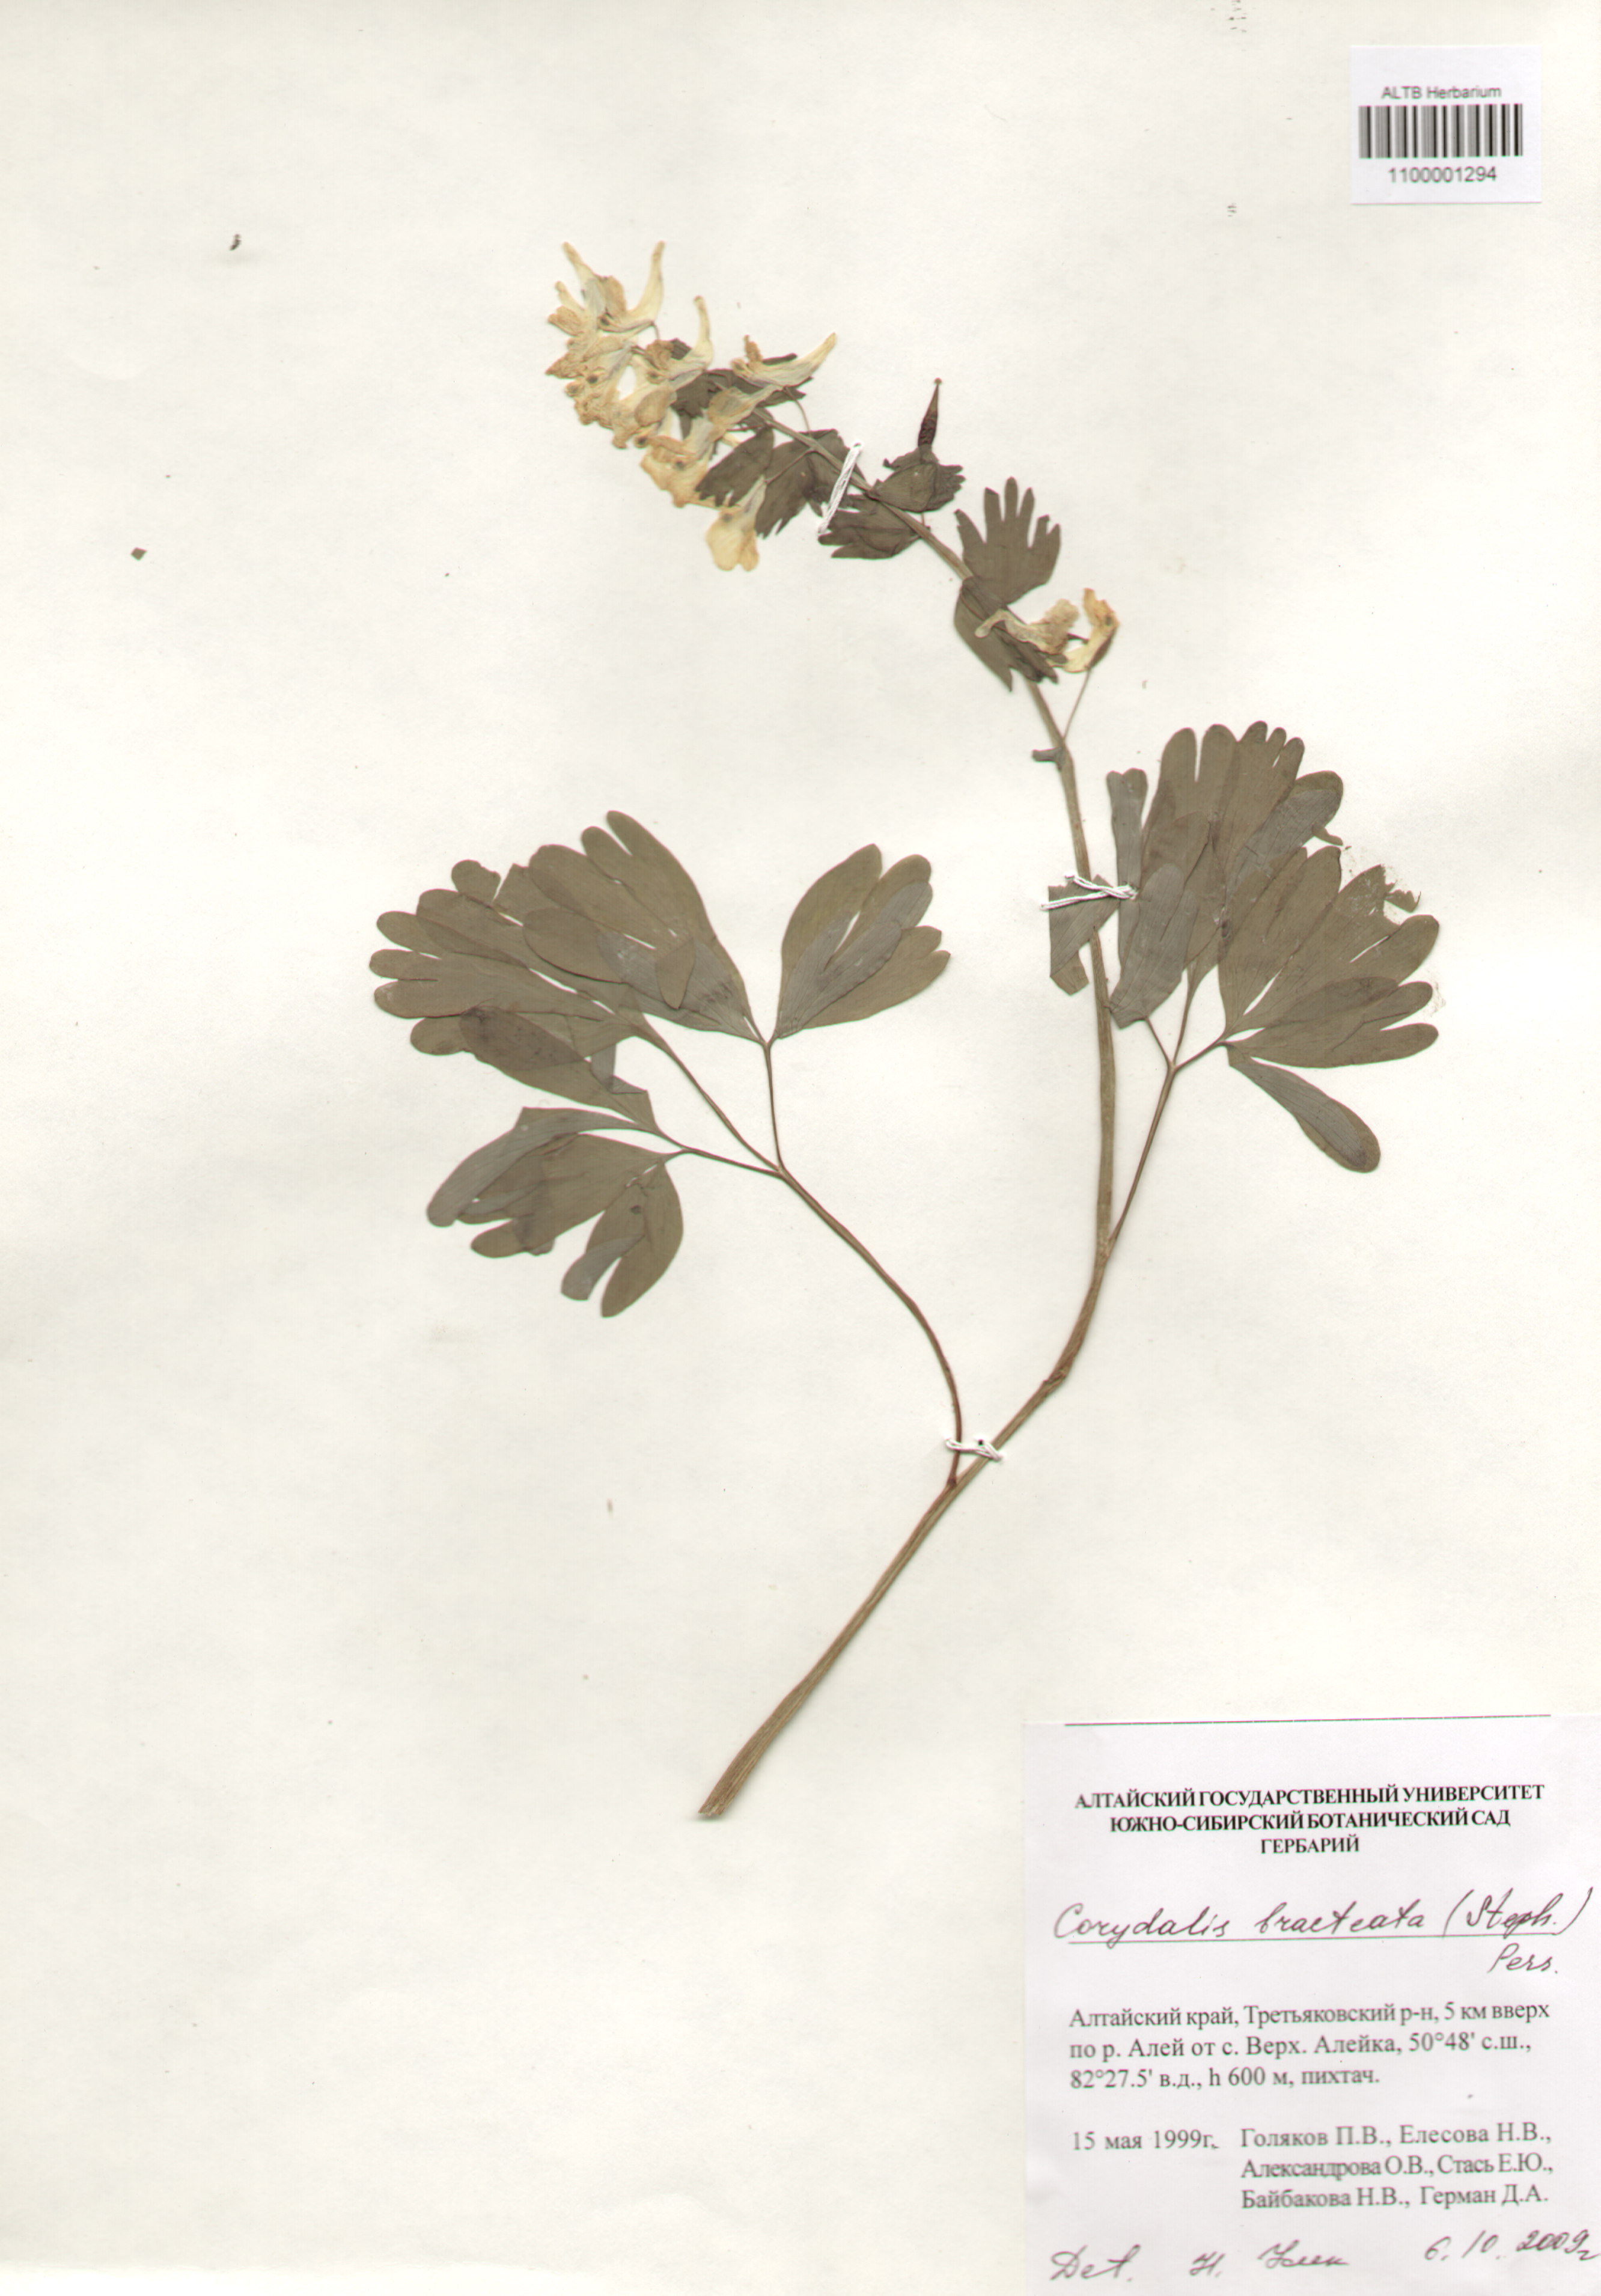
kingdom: Plantae
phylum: Tracheophyta
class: Magnoliopsida
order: Ranunculales
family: Papaveraceae
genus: Corydalis
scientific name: Corydalis bracteata
